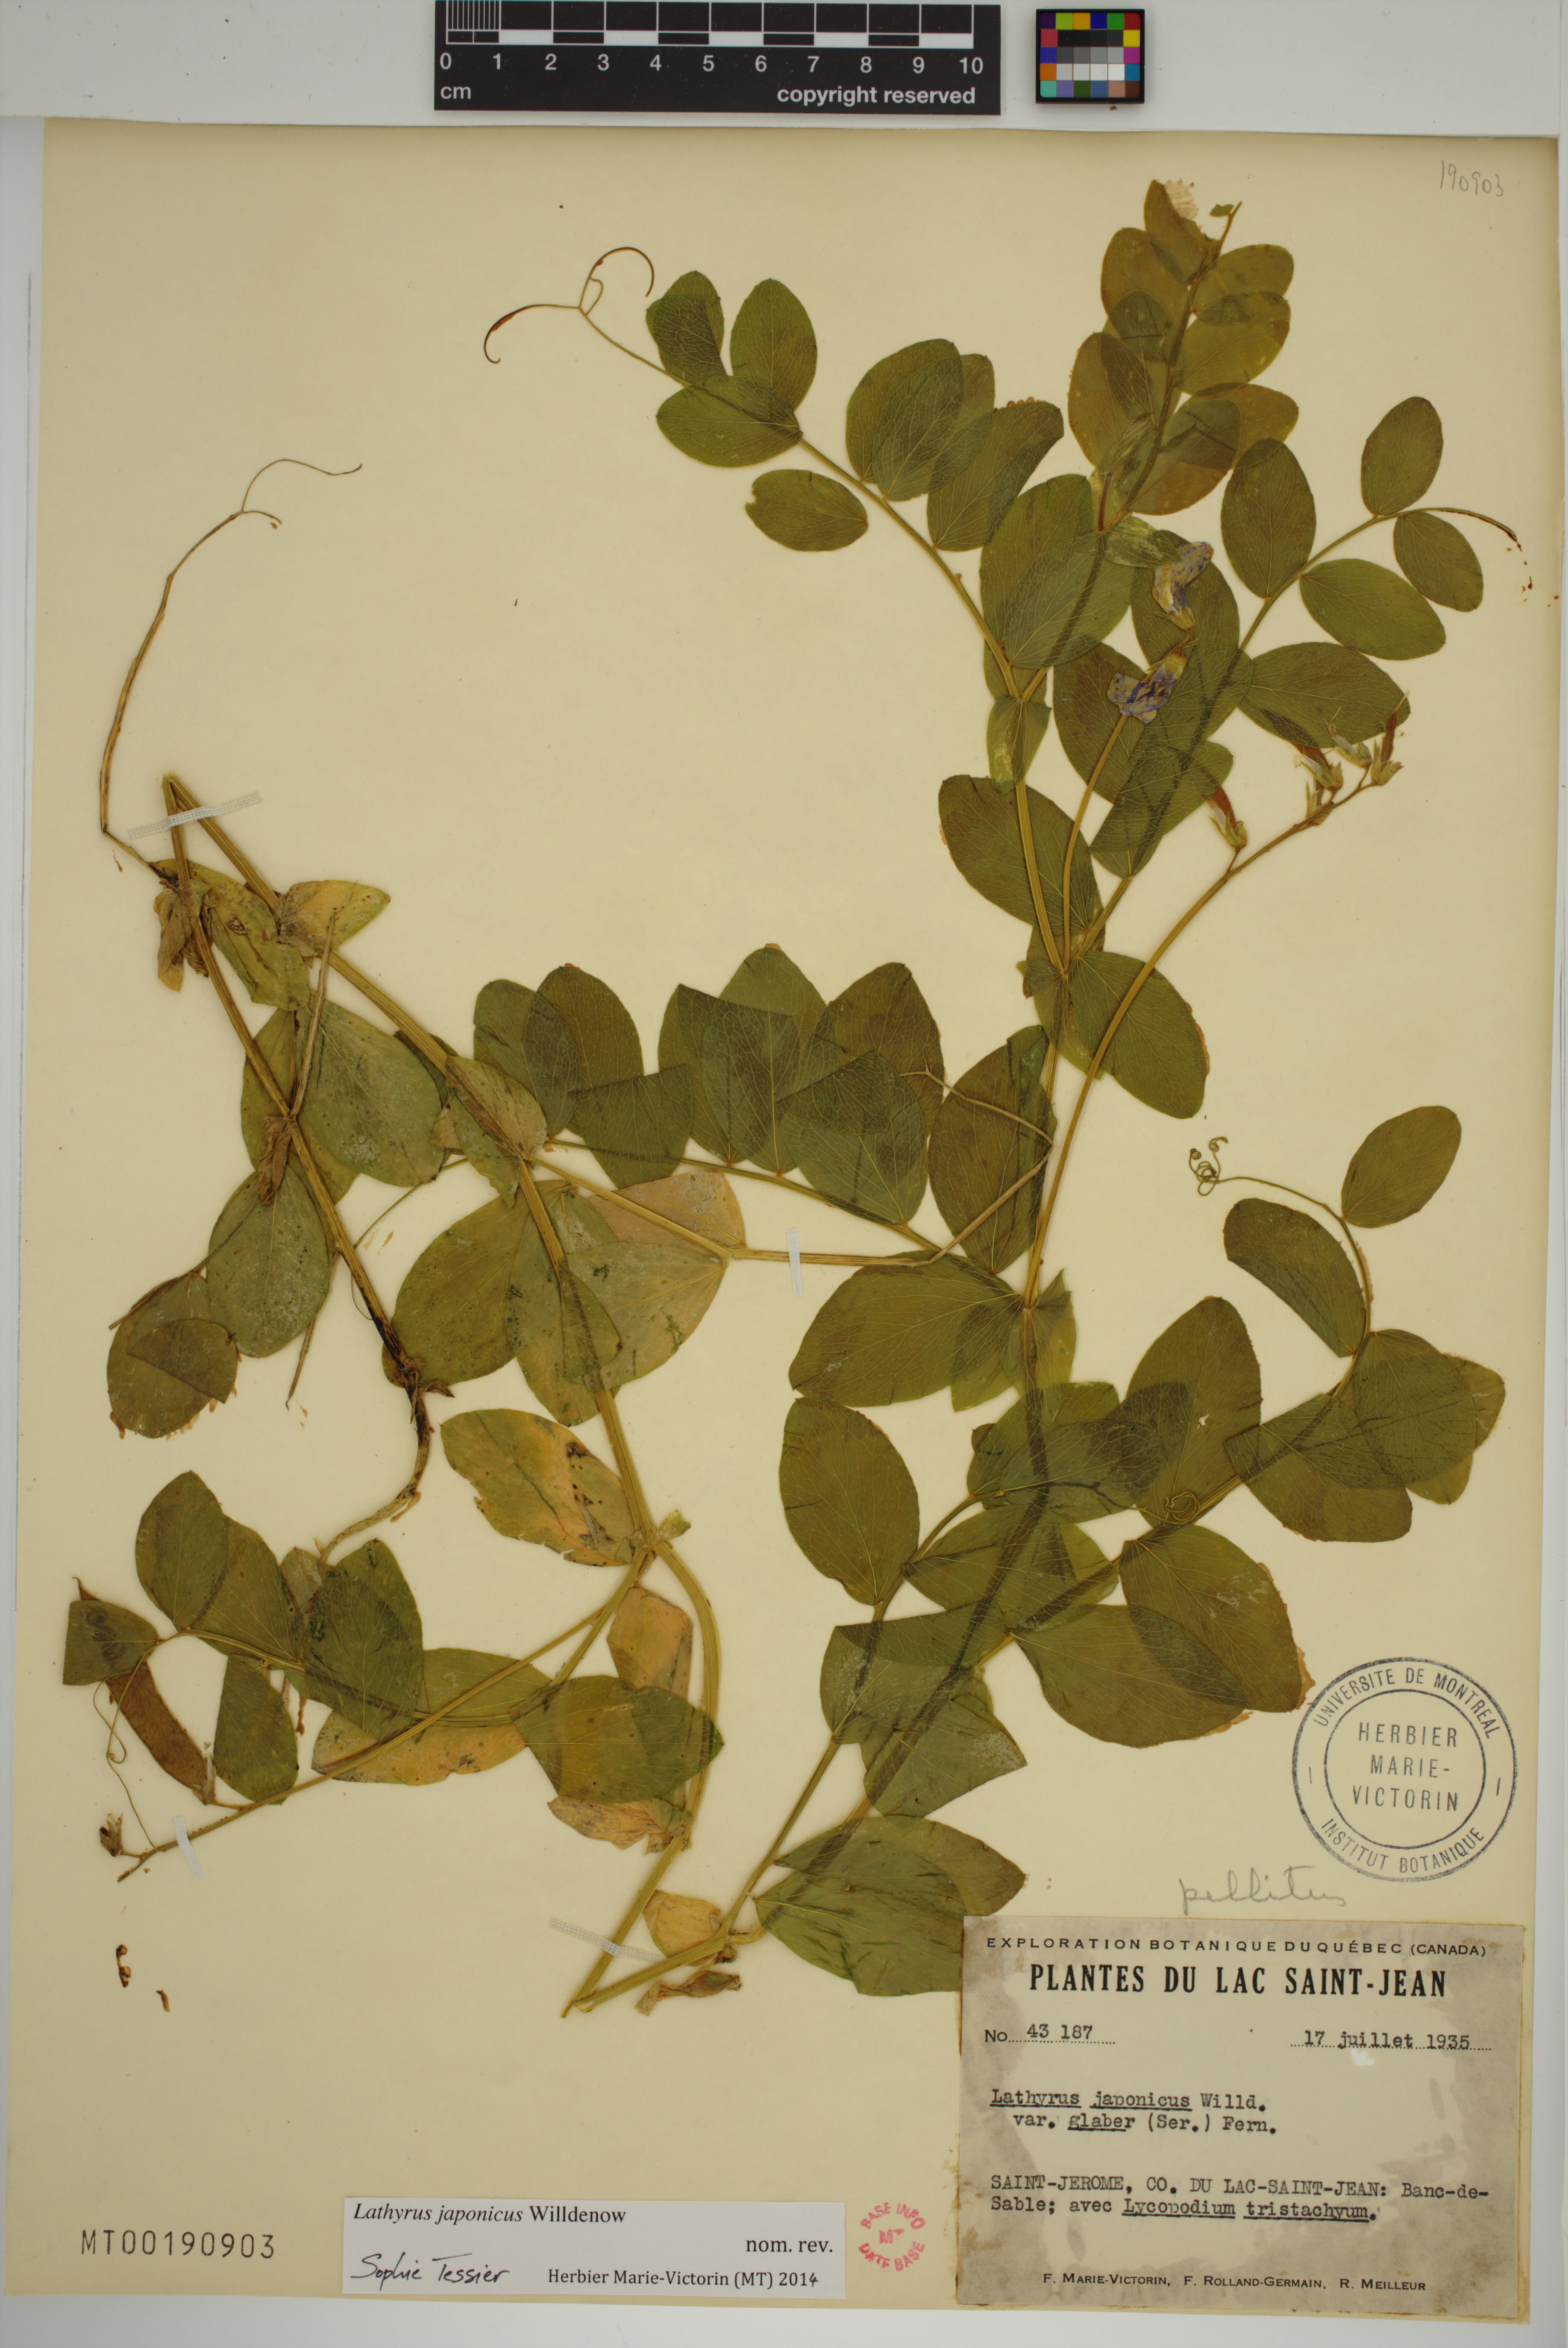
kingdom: Plantae
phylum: Tracheophyta
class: Magnoliopsida
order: Fabales
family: Fabaceae
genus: Lathyrus
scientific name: Lathyrus japonicus
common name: Sea pea
